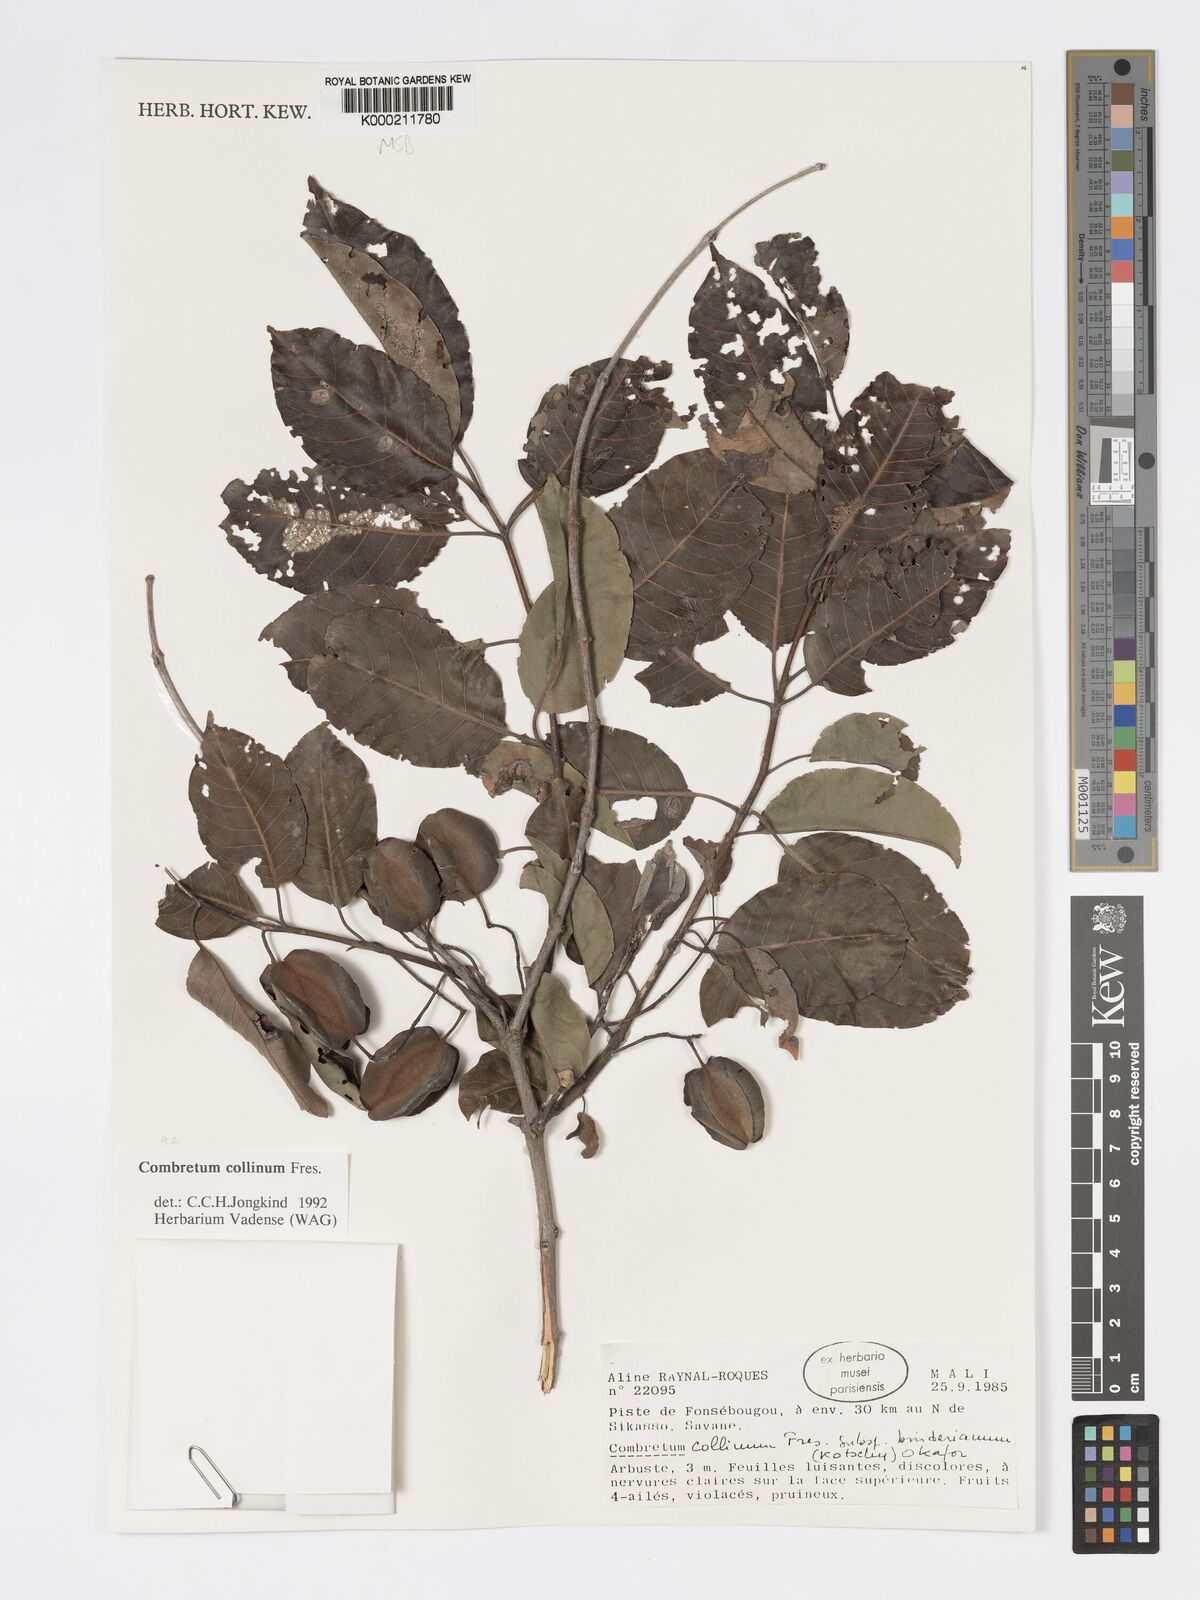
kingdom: Plantae
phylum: Tracheophyta
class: Magnoliopsida
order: Myrtales
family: Combretaceae
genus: Combretum
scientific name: Combretum collinum
